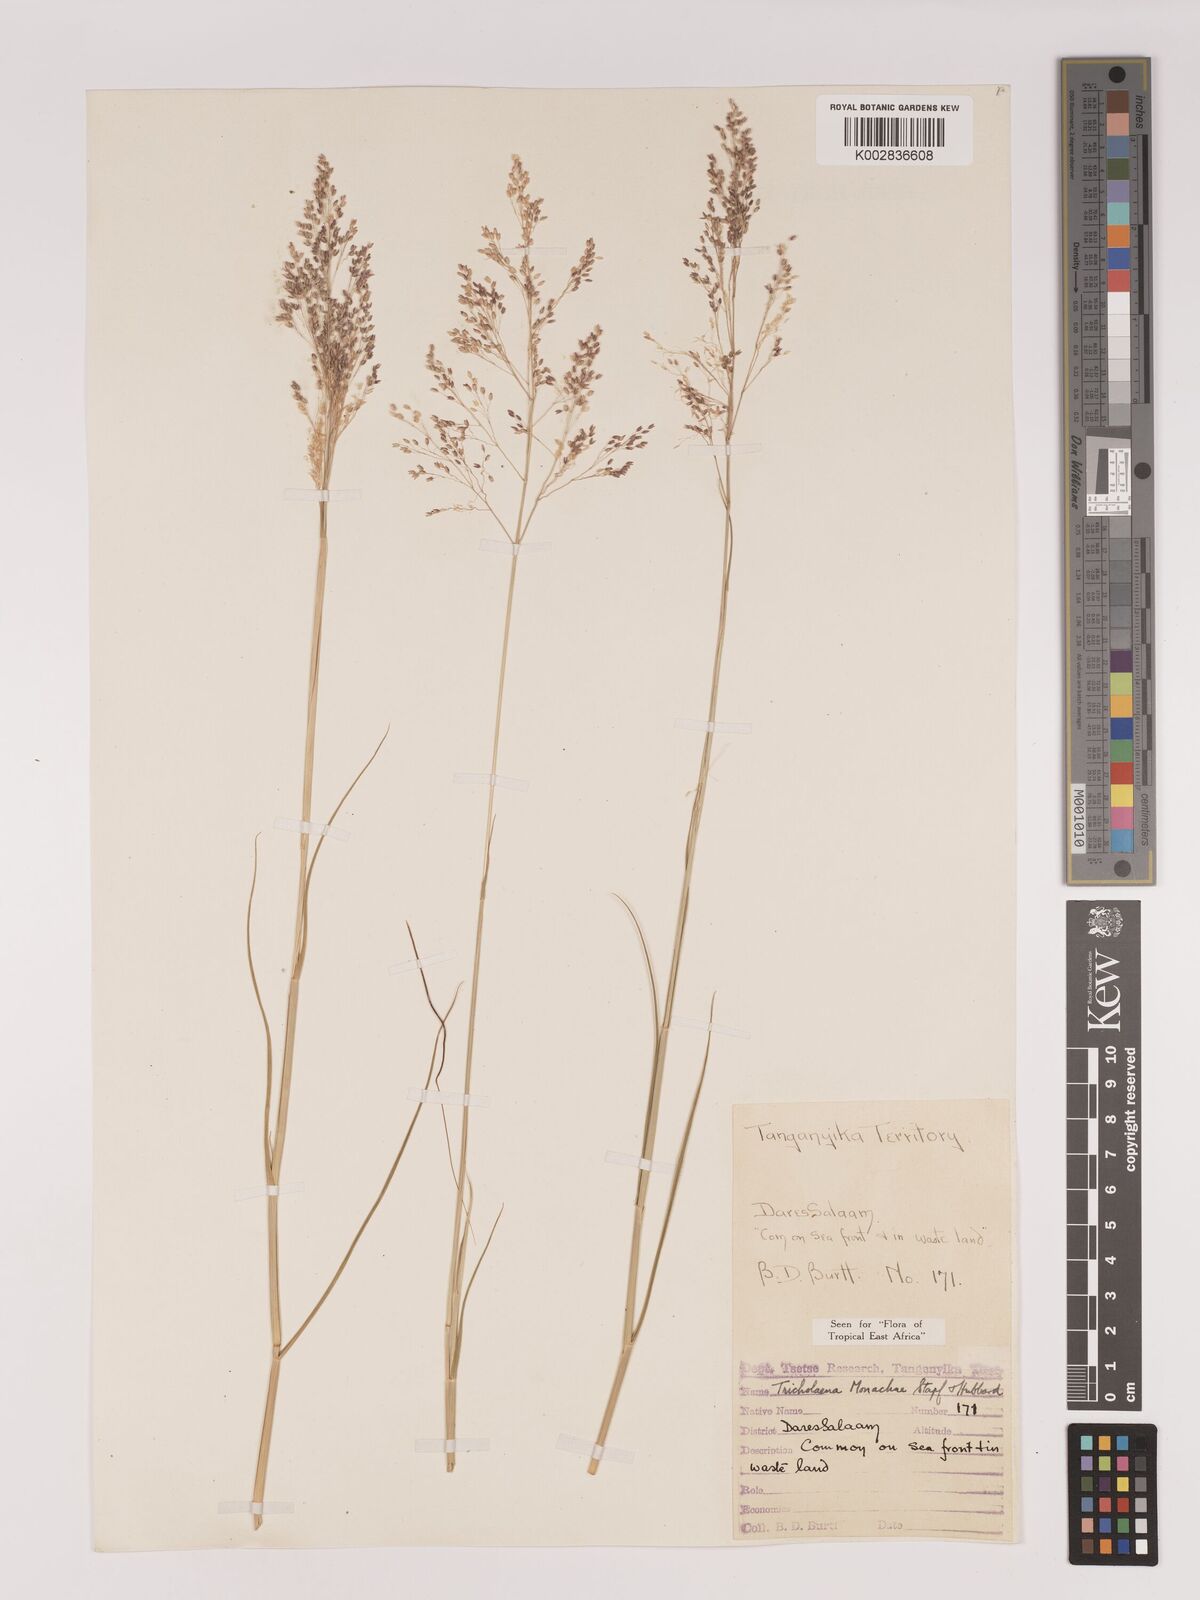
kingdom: Plantae
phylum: Tracheophyta
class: Liliopsida
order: Poales
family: Poaceae
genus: Tricholaena
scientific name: Tricholaena monachne
